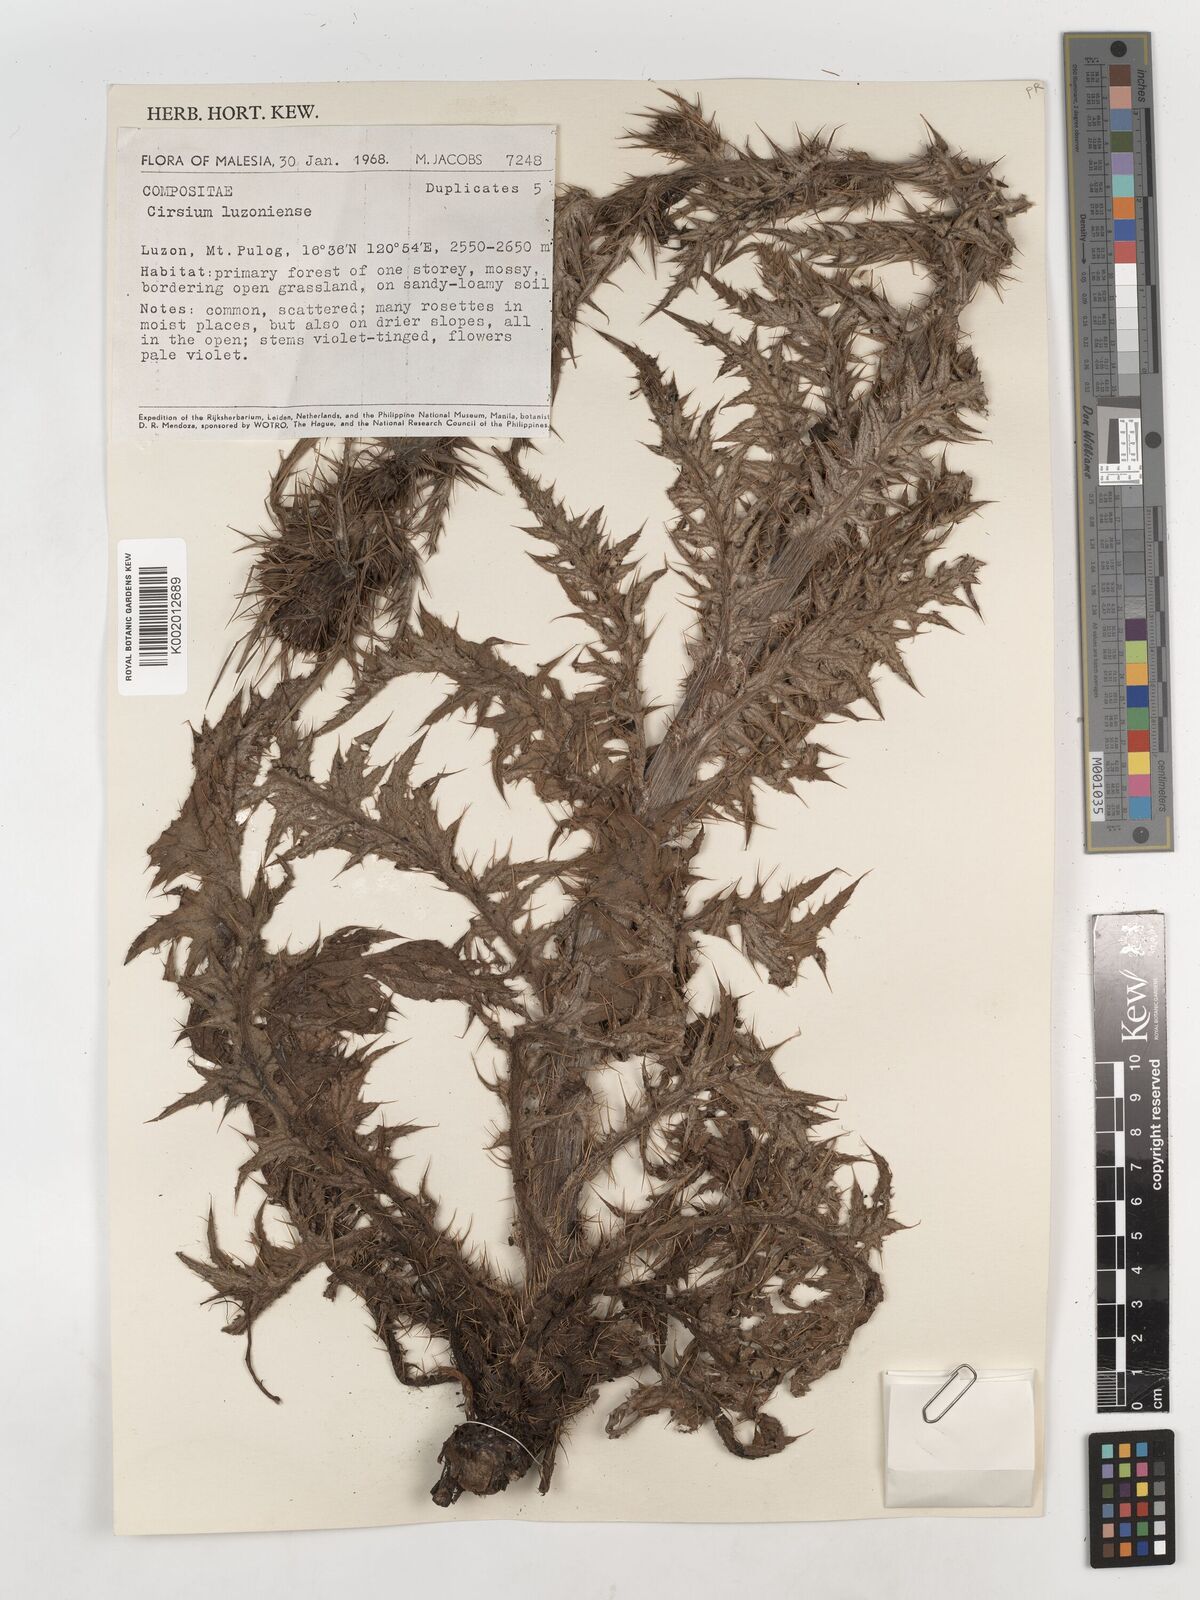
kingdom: Plantae
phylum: Tracheophyta
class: Magnoliopsida
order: Asterales
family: Asteraceae
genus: Cirsium
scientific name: Cirsium
